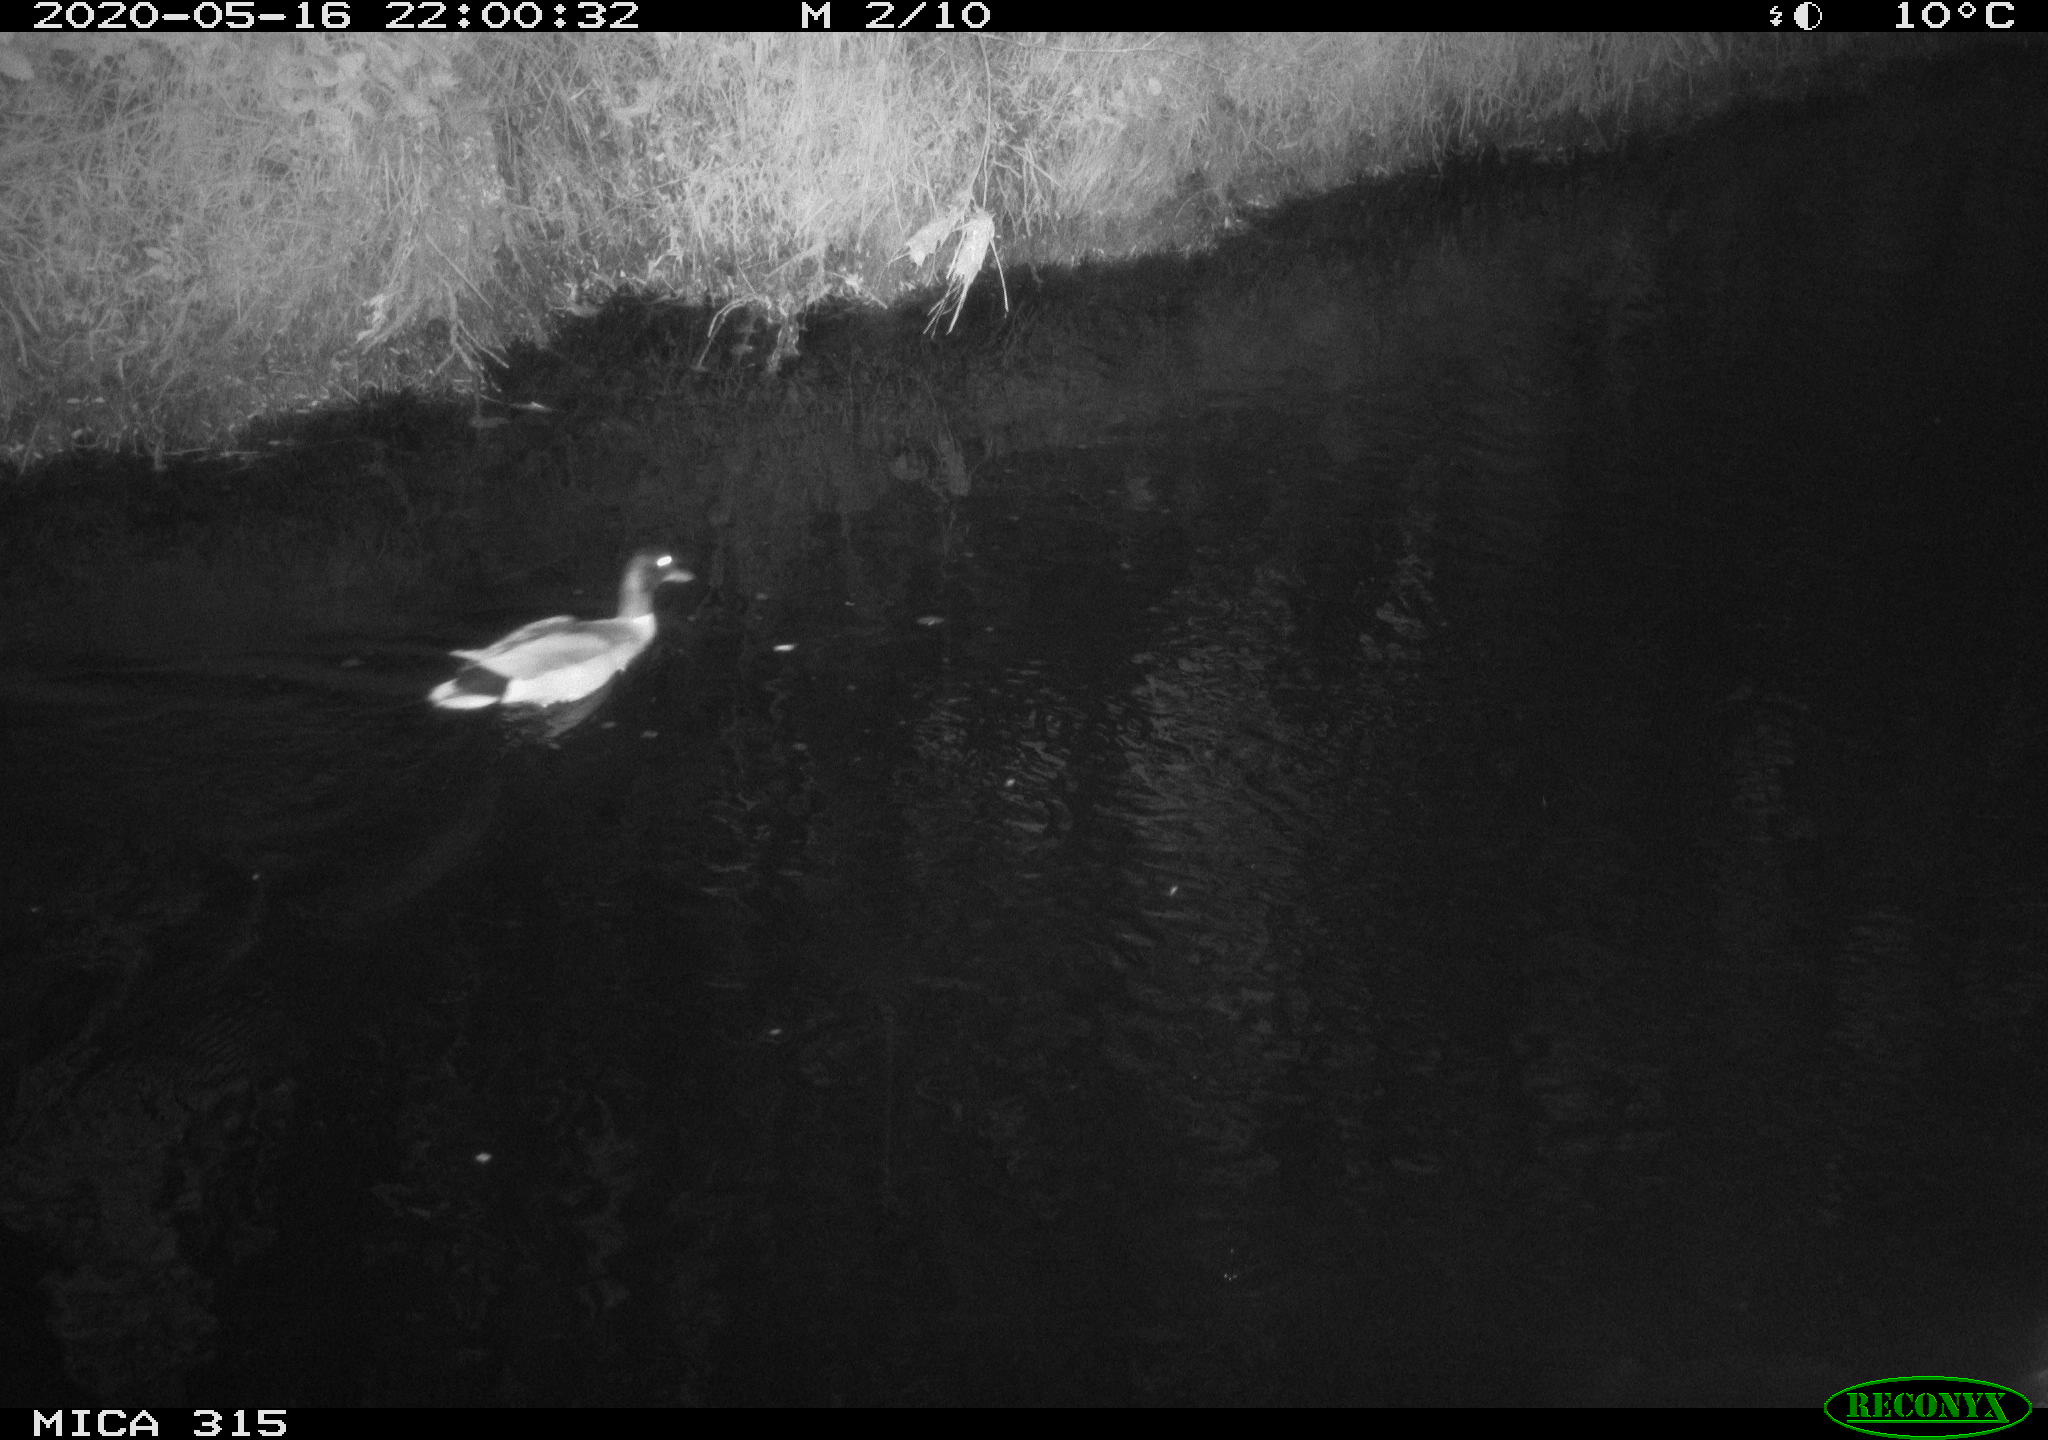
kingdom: Animalia
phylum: Chordata
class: Aves
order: Anseriformes
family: Anatidae
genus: Anas
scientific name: Anas platyrhynchos
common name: Mallard
